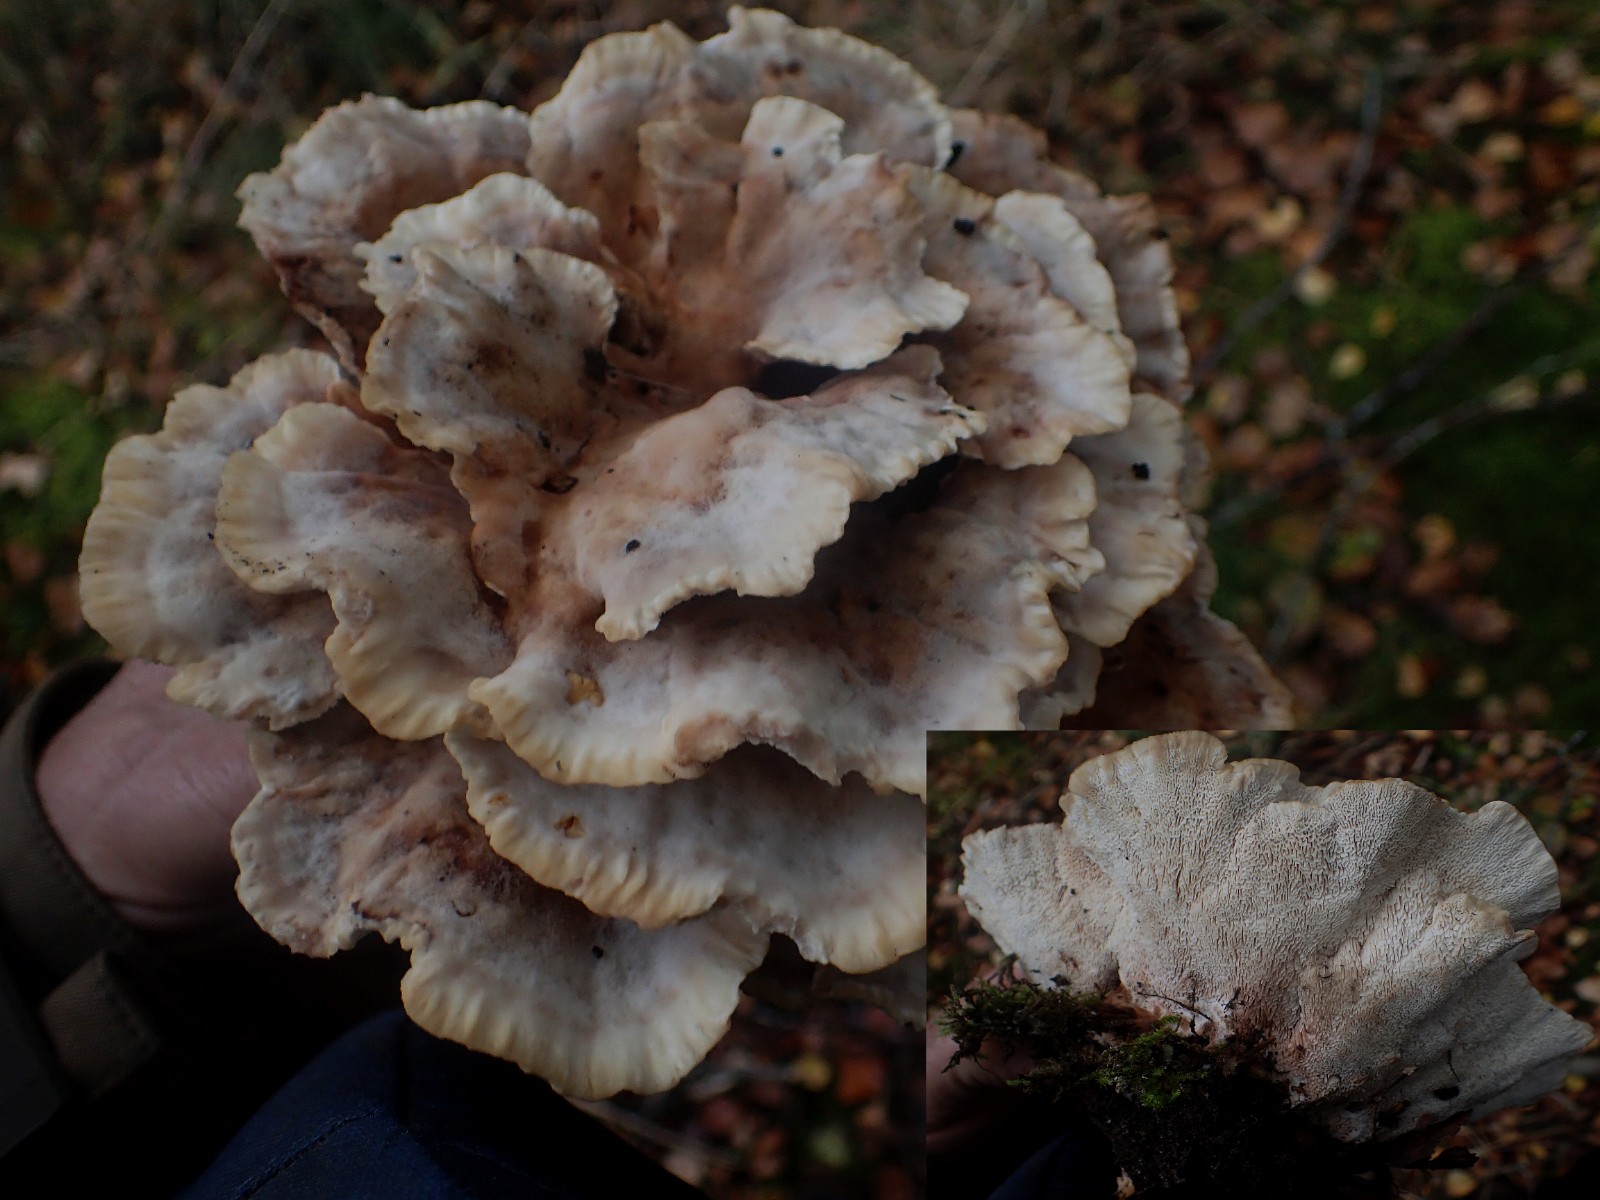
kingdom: Fungi
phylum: Basidiomycota
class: Agaricomycetes
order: Polyporales
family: Podoscyphaceae
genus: Abortiporus
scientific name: Abortiporus biennis
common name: rødmende pjalteporesvamp
